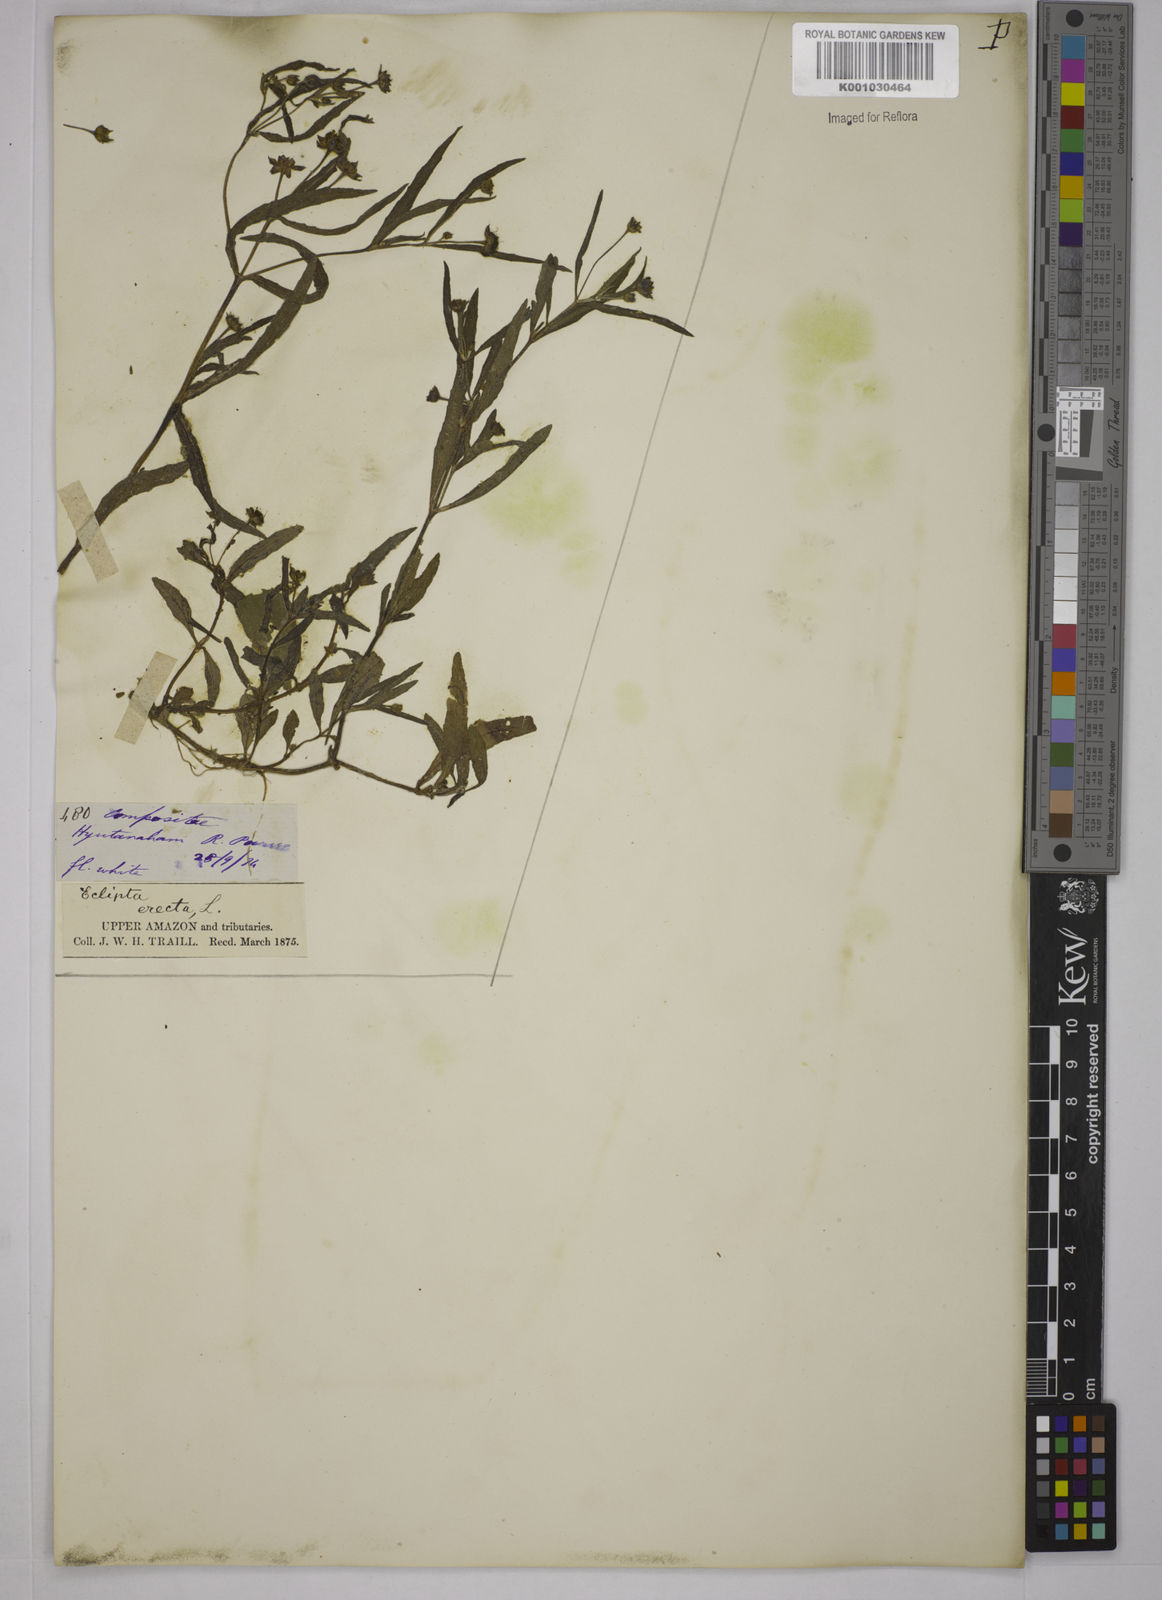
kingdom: Plantae
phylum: Tracheophyta
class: Magnoliopsida
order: Asterales
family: Asteraceae
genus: Eclipta
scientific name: Eclipta prostrata
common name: False daisy
